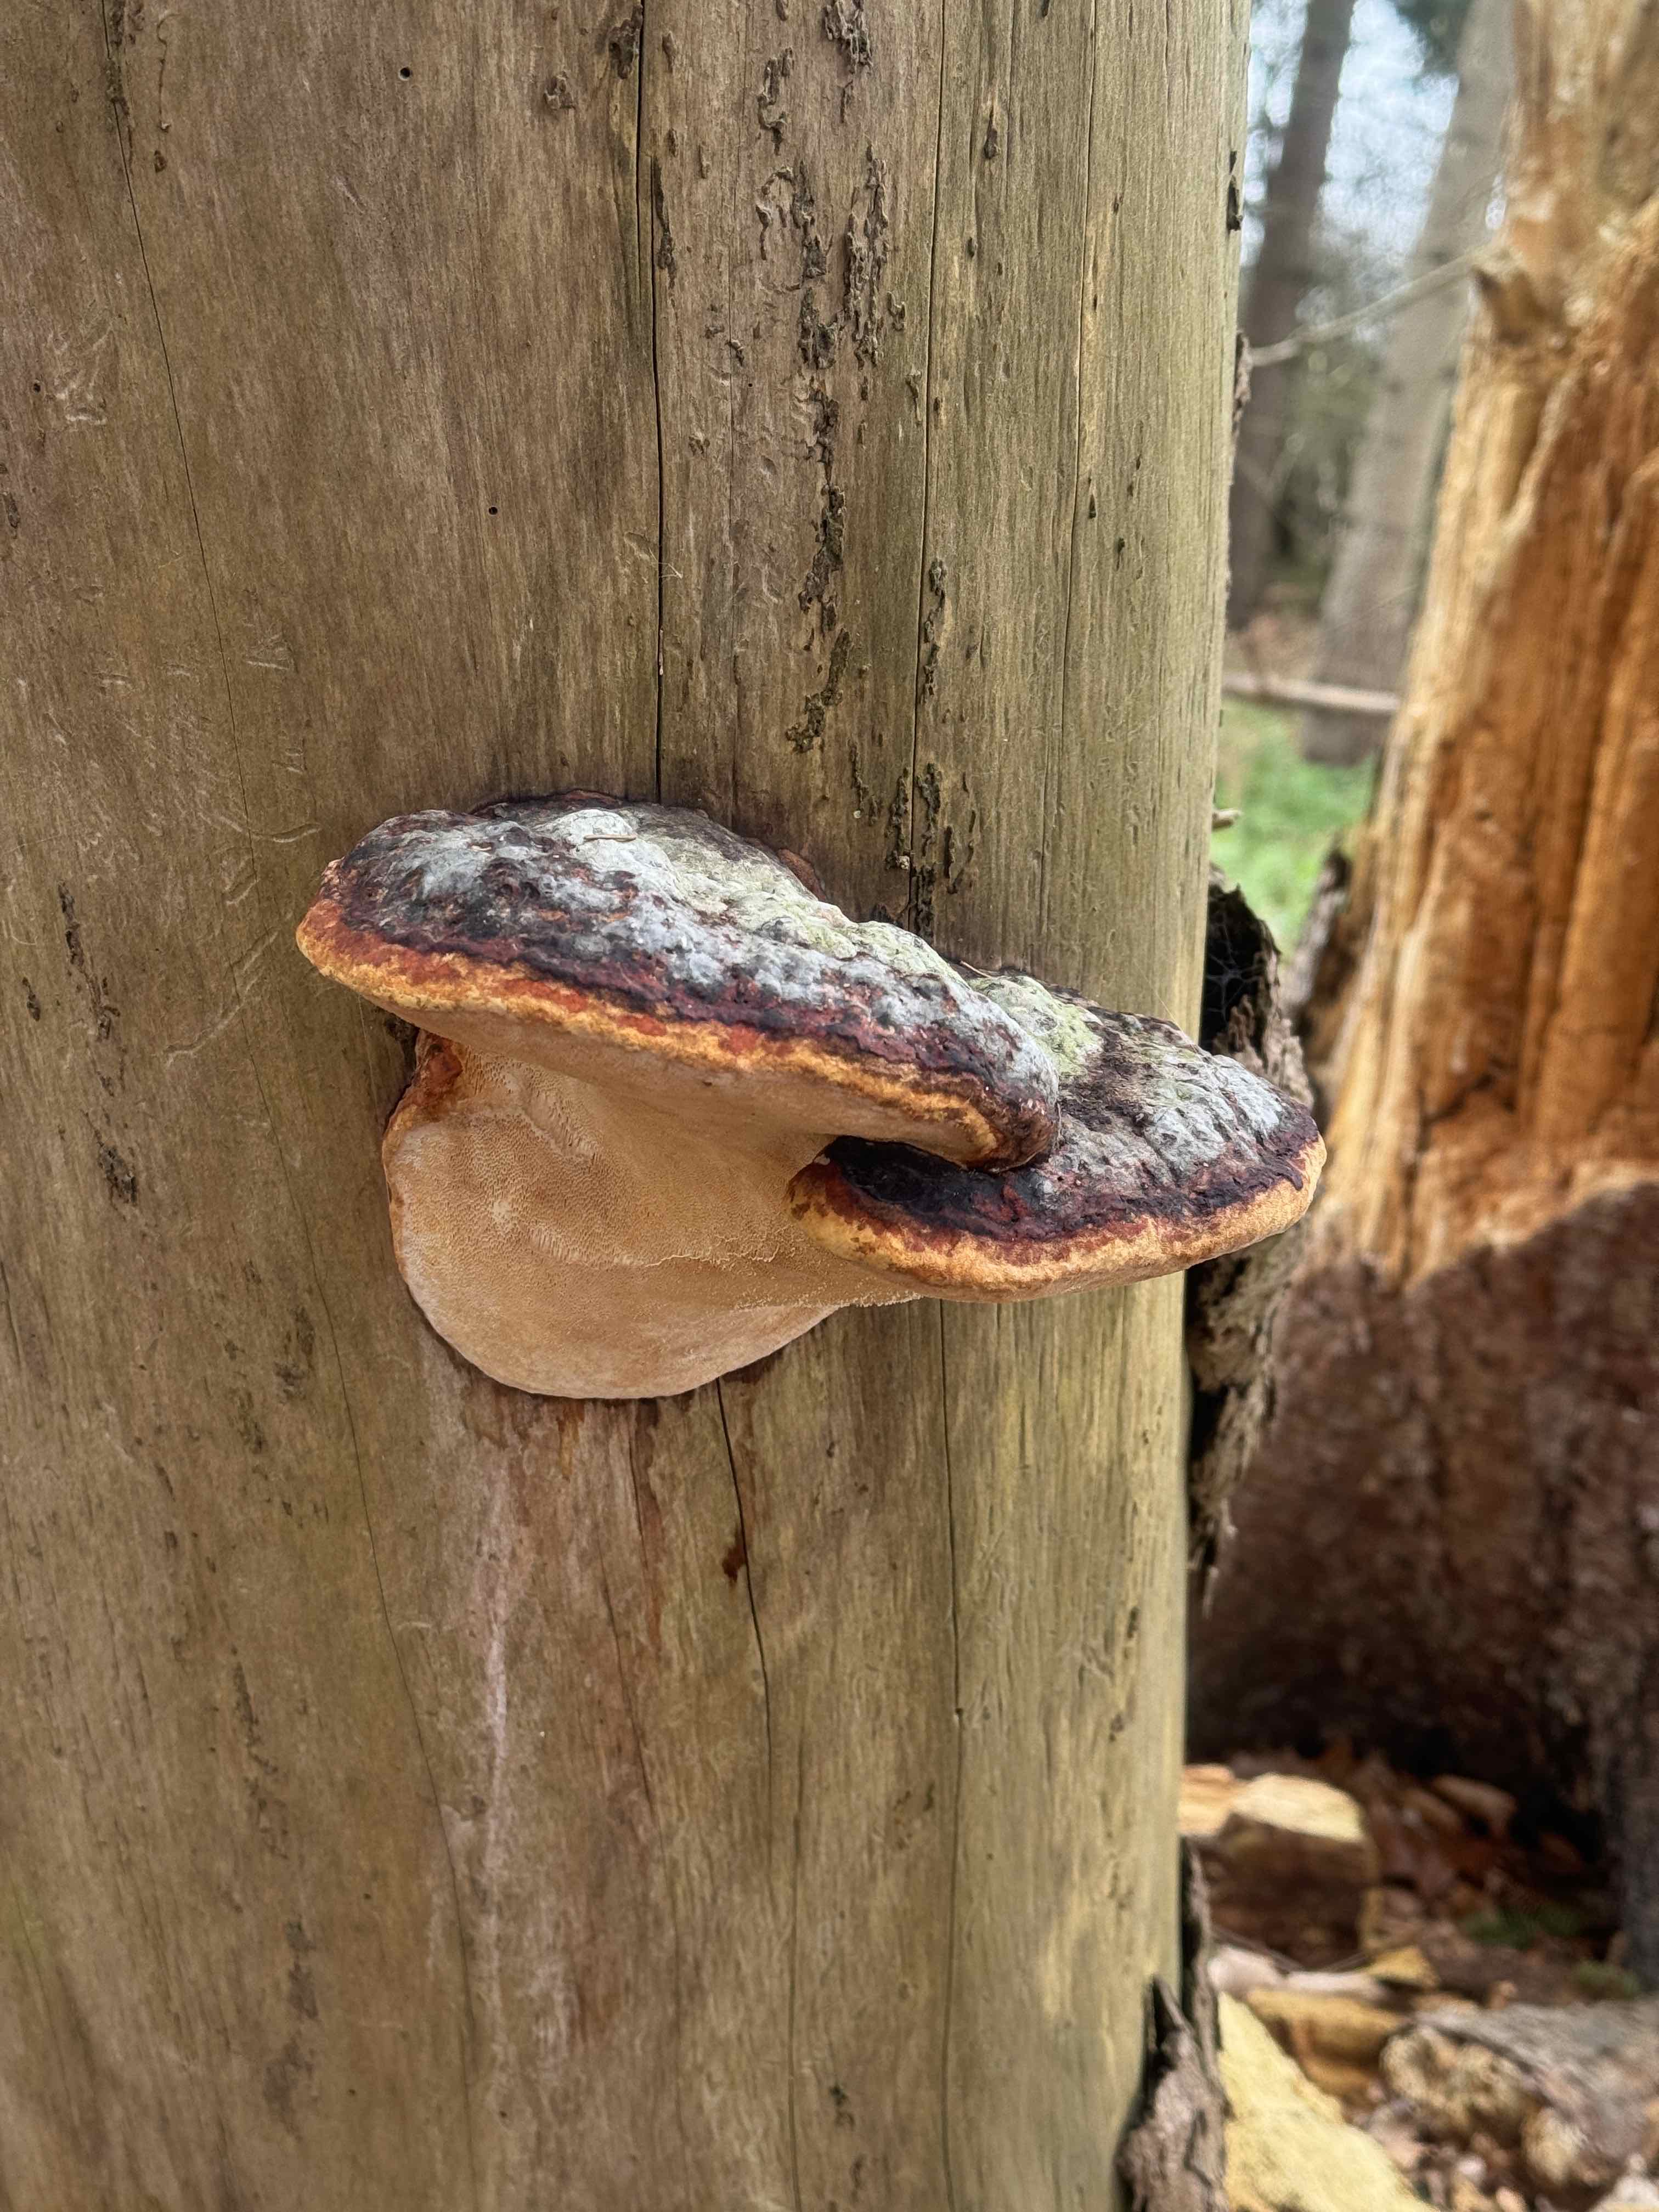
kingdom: Fungi
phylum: Basidiomycota
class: Agaricomycetes
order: Polyporales
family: Fomitopsidaceae
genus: Fomitopsis
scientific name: Fomitopsis pinicola
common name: randbæltet hovporesvamp
